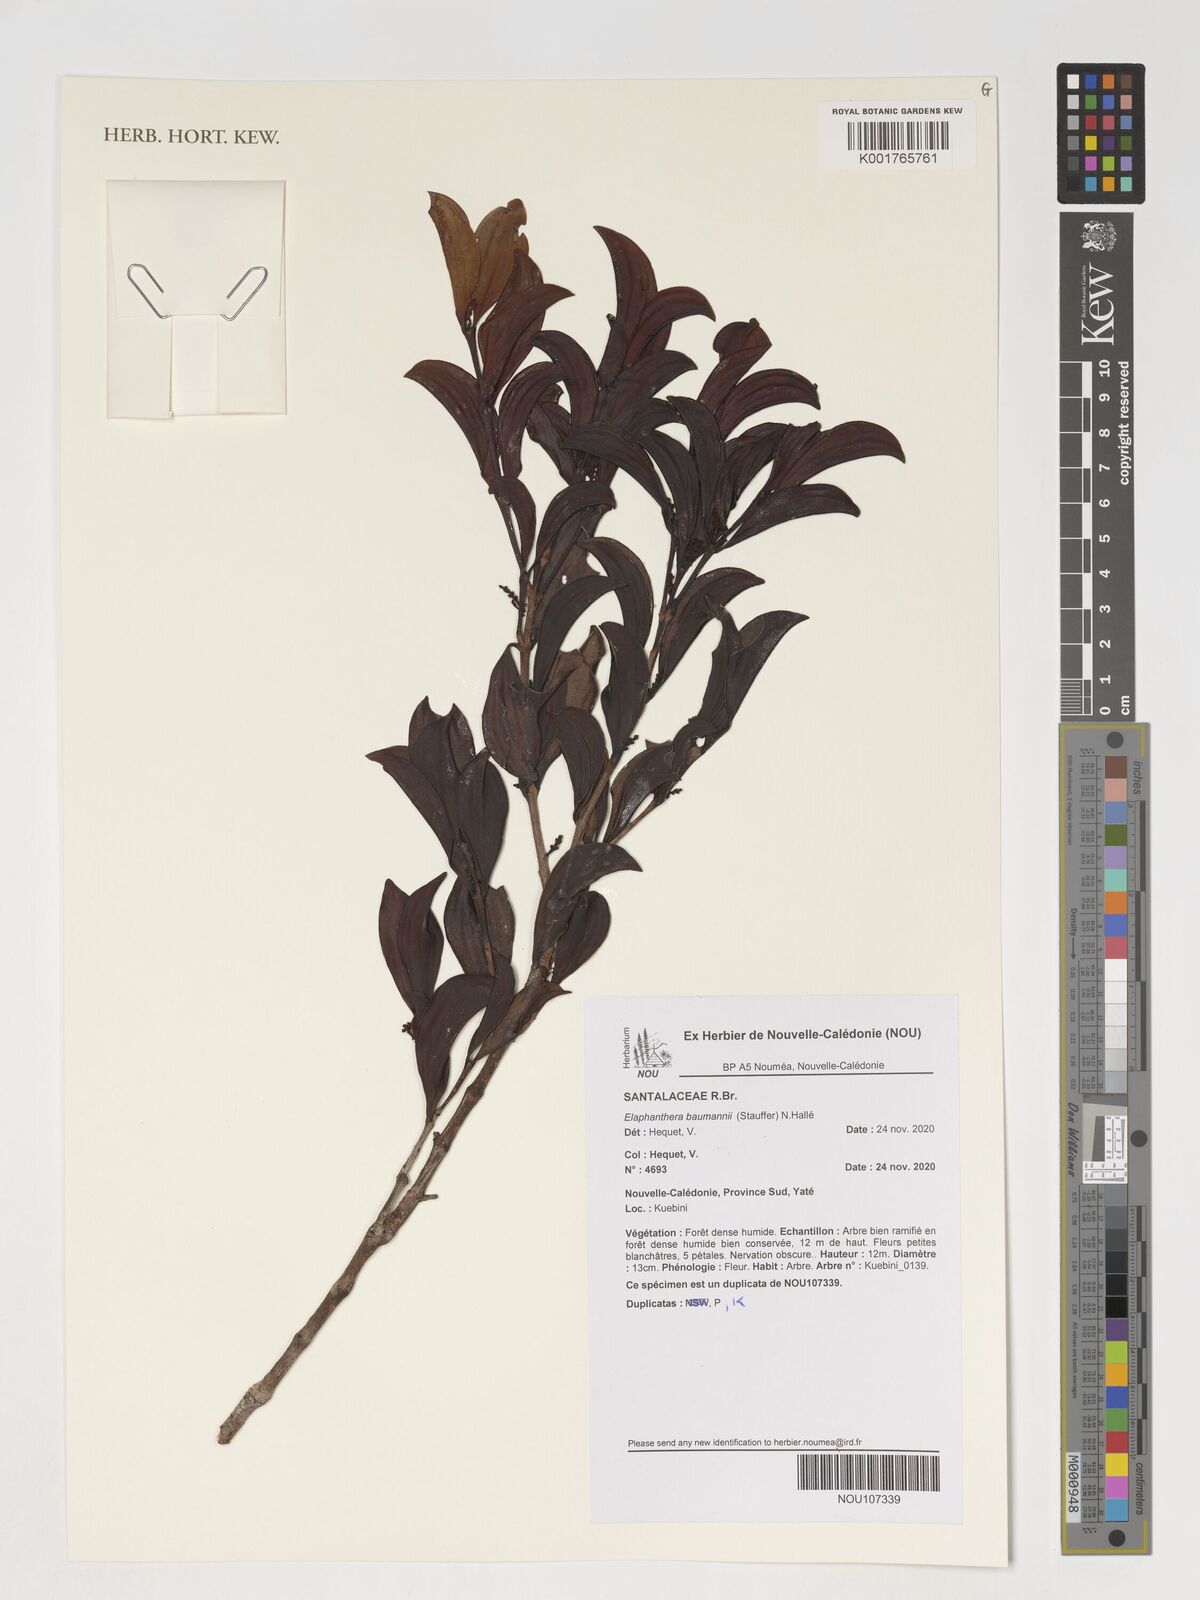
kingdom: Plantae
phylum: Tracheophyta
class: Magnoliopsida
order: Santalales
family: Santalaceae
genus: Elaphanthera
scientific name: Elaphanthera baumannii
